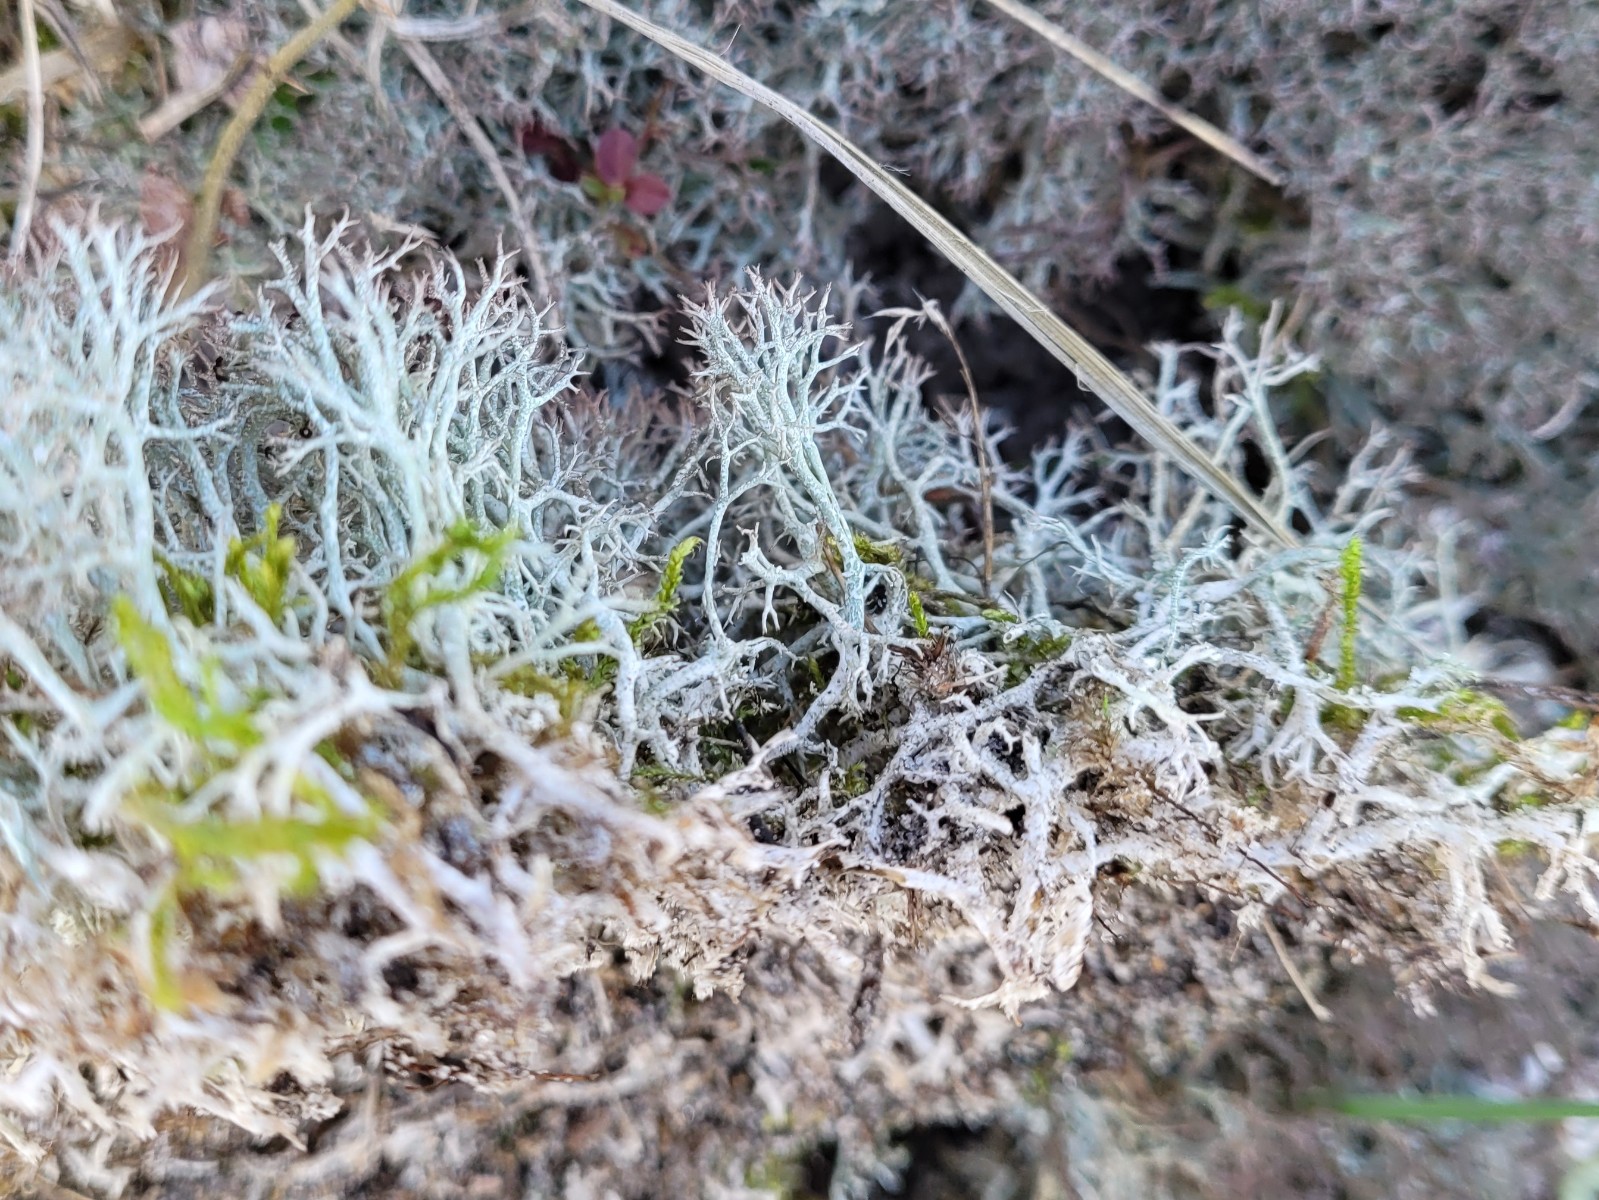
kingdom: Fungi
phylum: Ascomycota
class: Lecanoromycetes
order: Lecanorales
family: Cladoniaceae
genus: Cladonia
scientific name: Cladonia rangiformis
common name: spættet bægerlav
